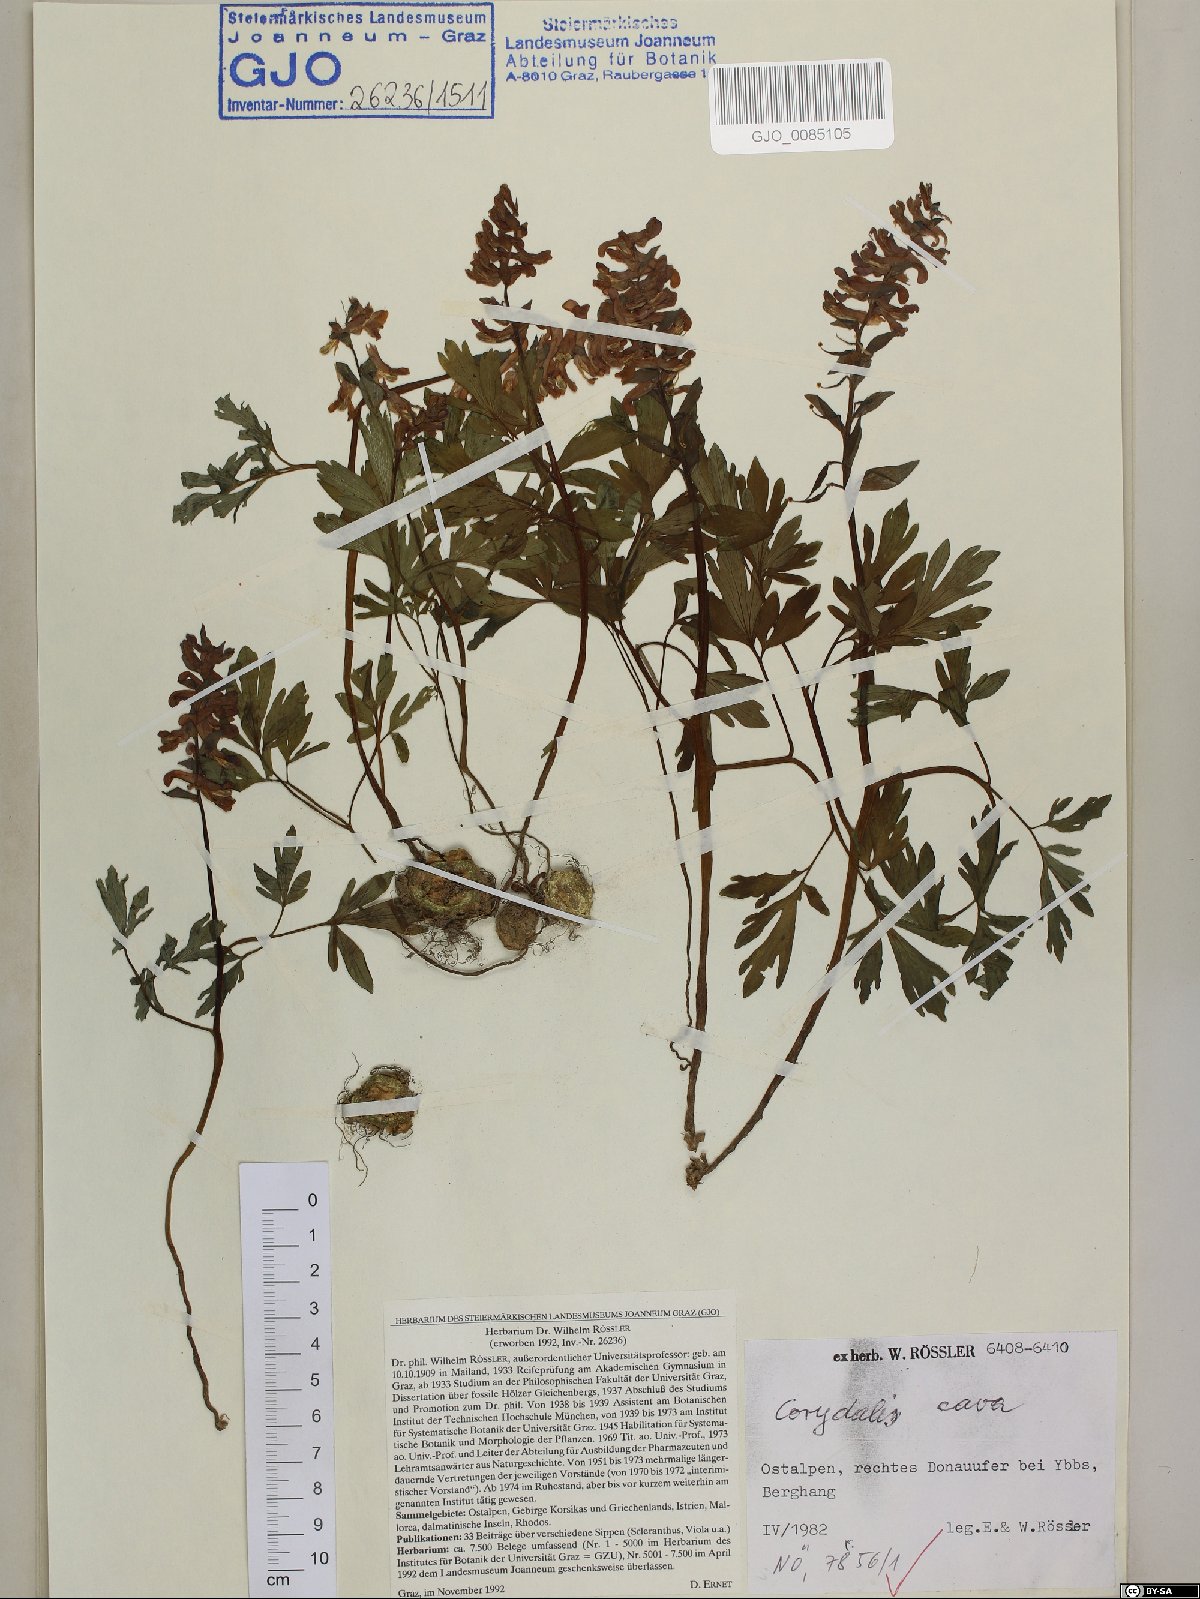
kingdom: Plantae
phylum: Tracheophyta
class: Magnoliopsida
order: Ranunculales
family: Papaveraceae
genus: Corydalis
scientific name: Corydalis cava
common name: Hollowroot
